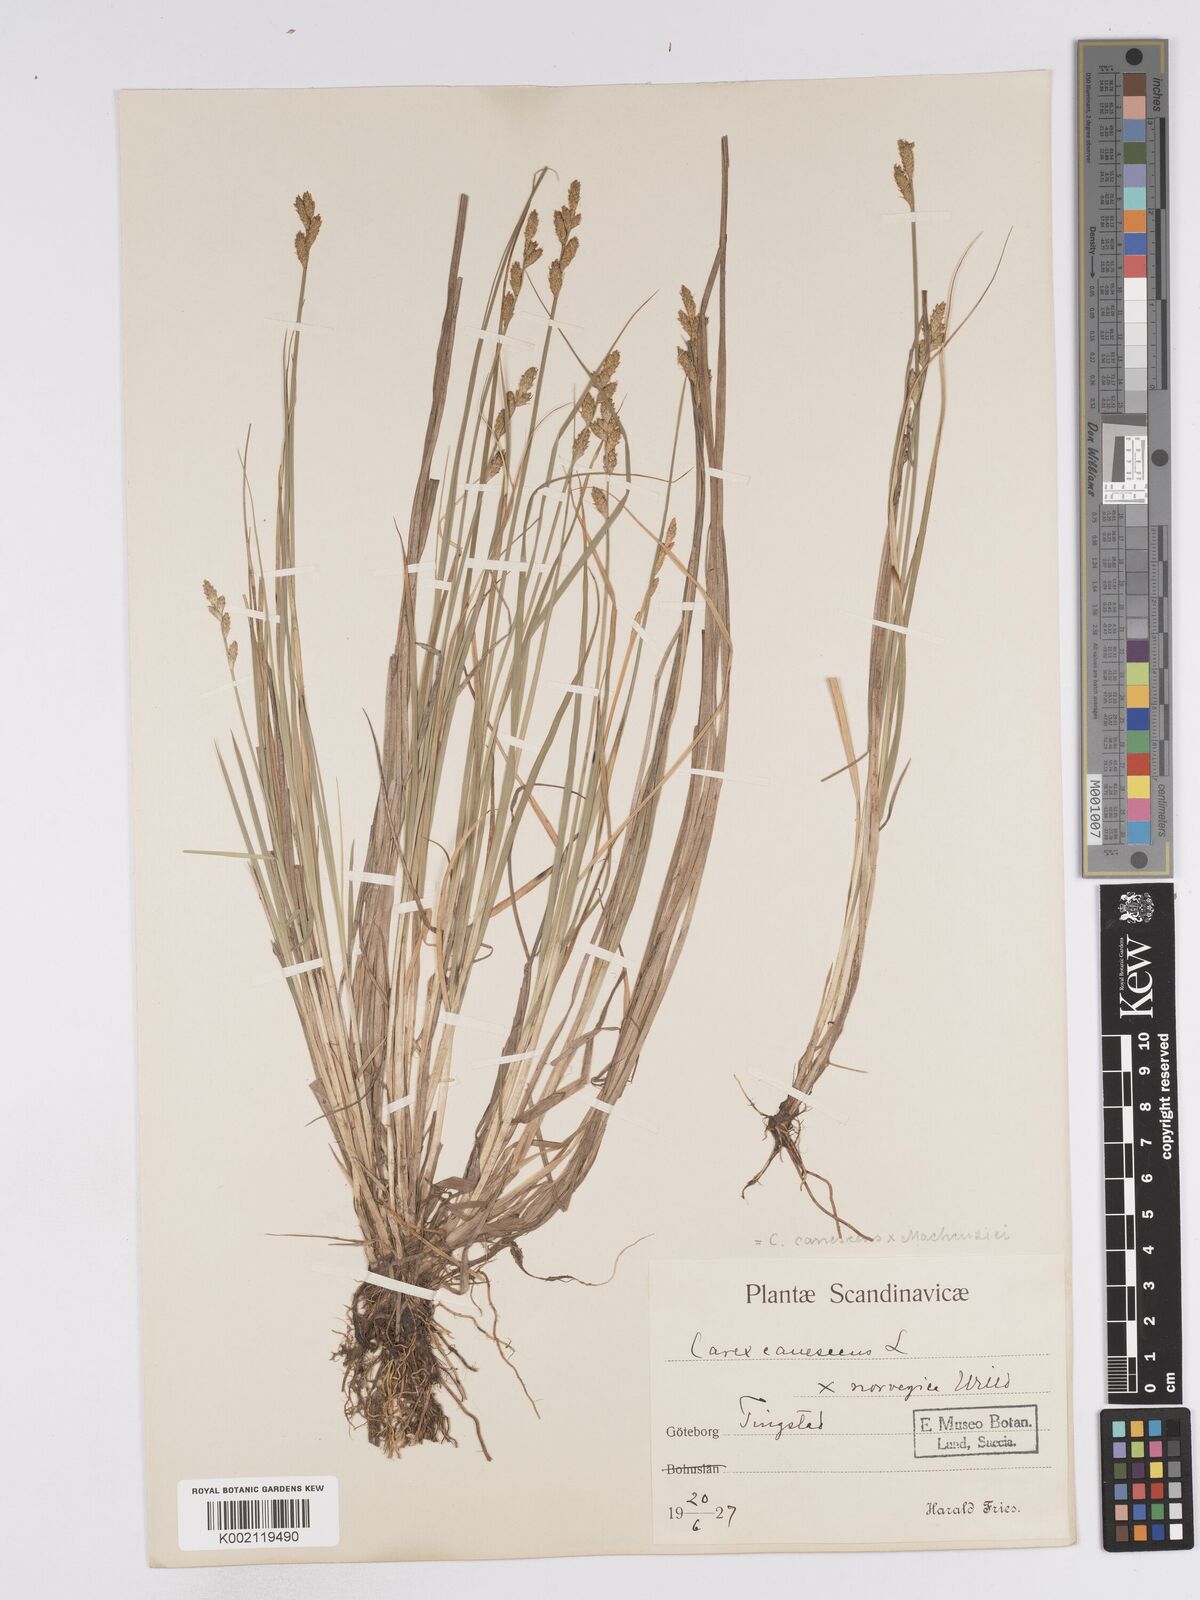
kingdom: Plantae
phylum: Tracheophyta
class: Liliopsida
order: Poales
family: Cyperaceae
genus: Carex
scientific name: Carex mackenziei
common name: Mackenzie's sedge
